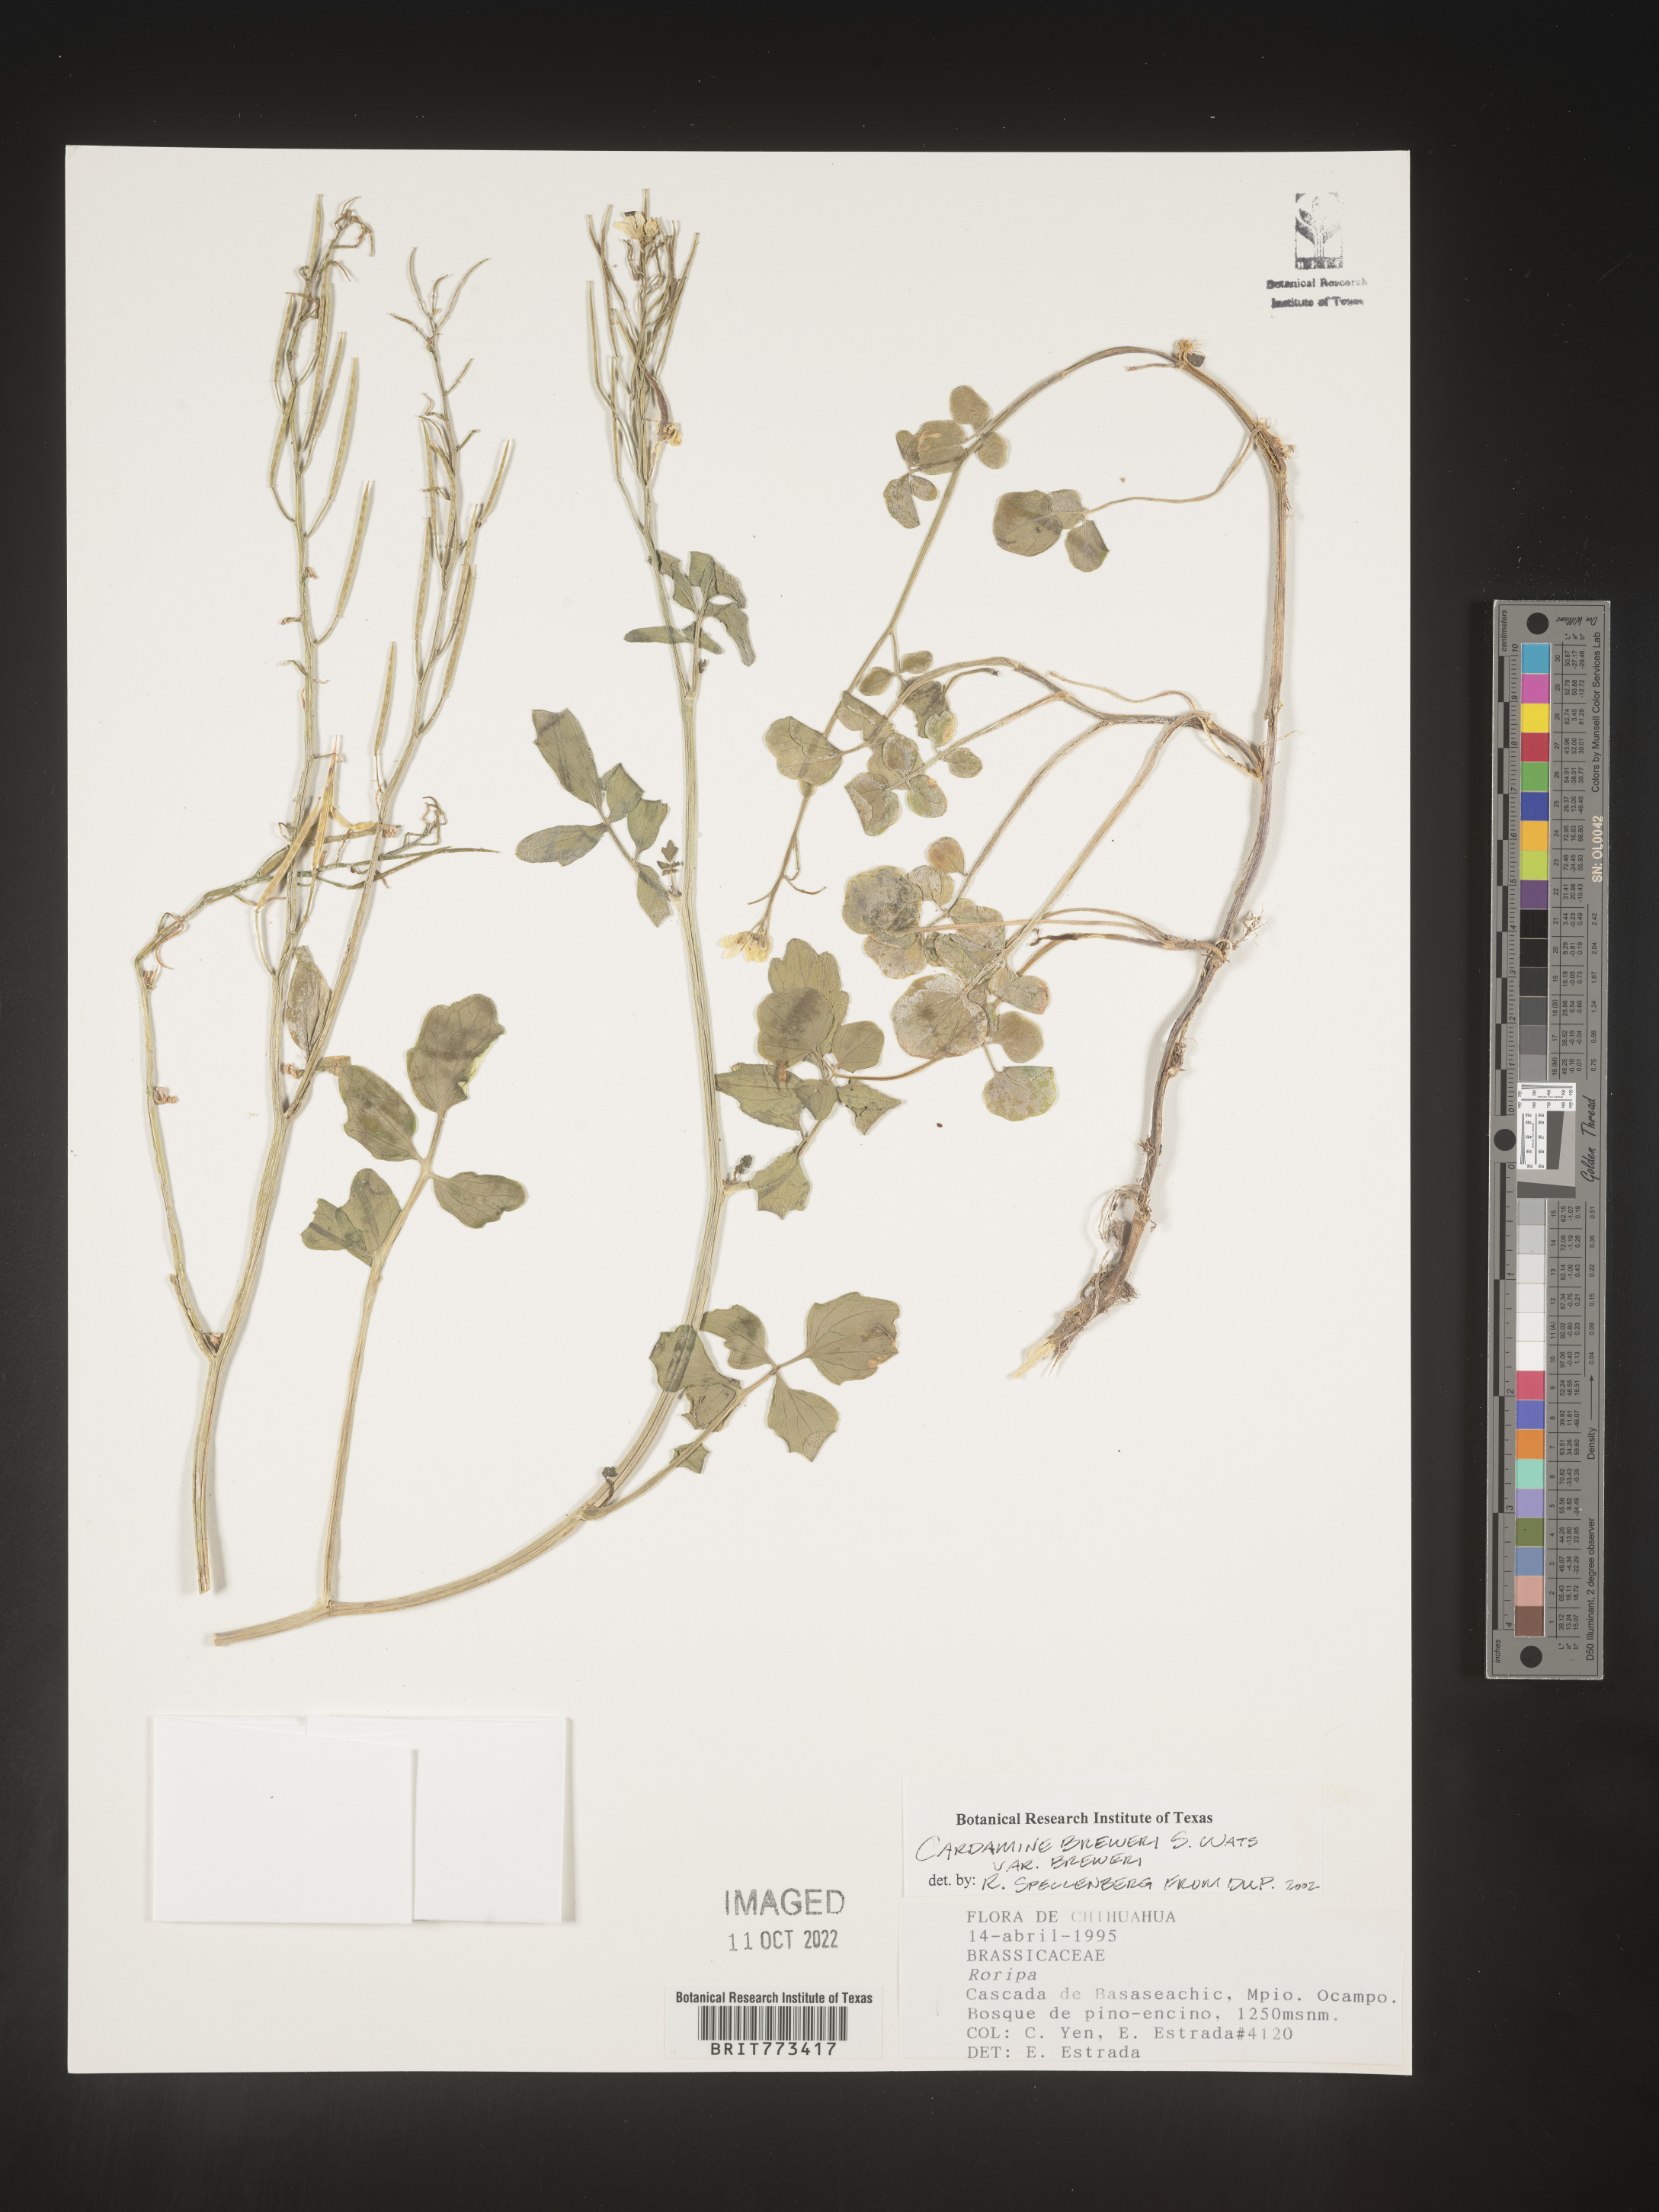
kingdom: Plantae
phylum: Tracheophyta
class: Magnoliopsida
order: Brassicales
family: Brassicaceae
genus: Cardamine
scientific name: Cardamine
